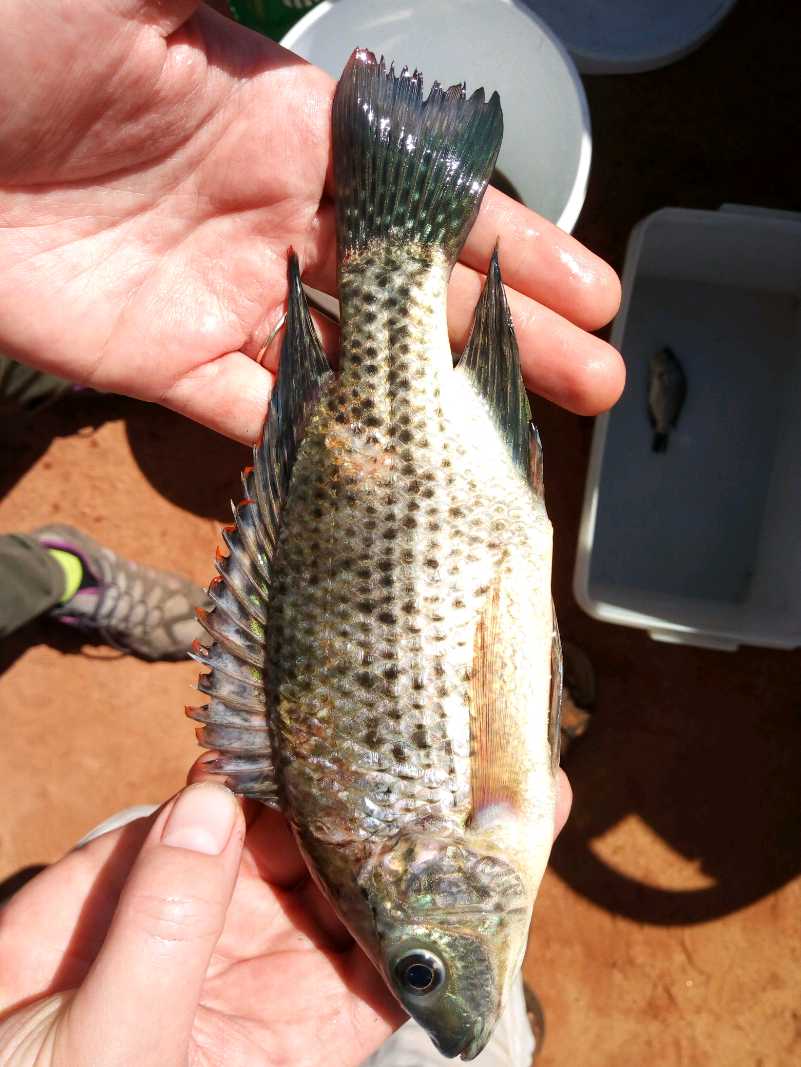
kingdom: Animalia
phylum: Chordata
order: Perciformes
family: Cichlidae
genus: Oreochromis
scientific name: Oreochromis jipe
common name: Jipe tilapia
